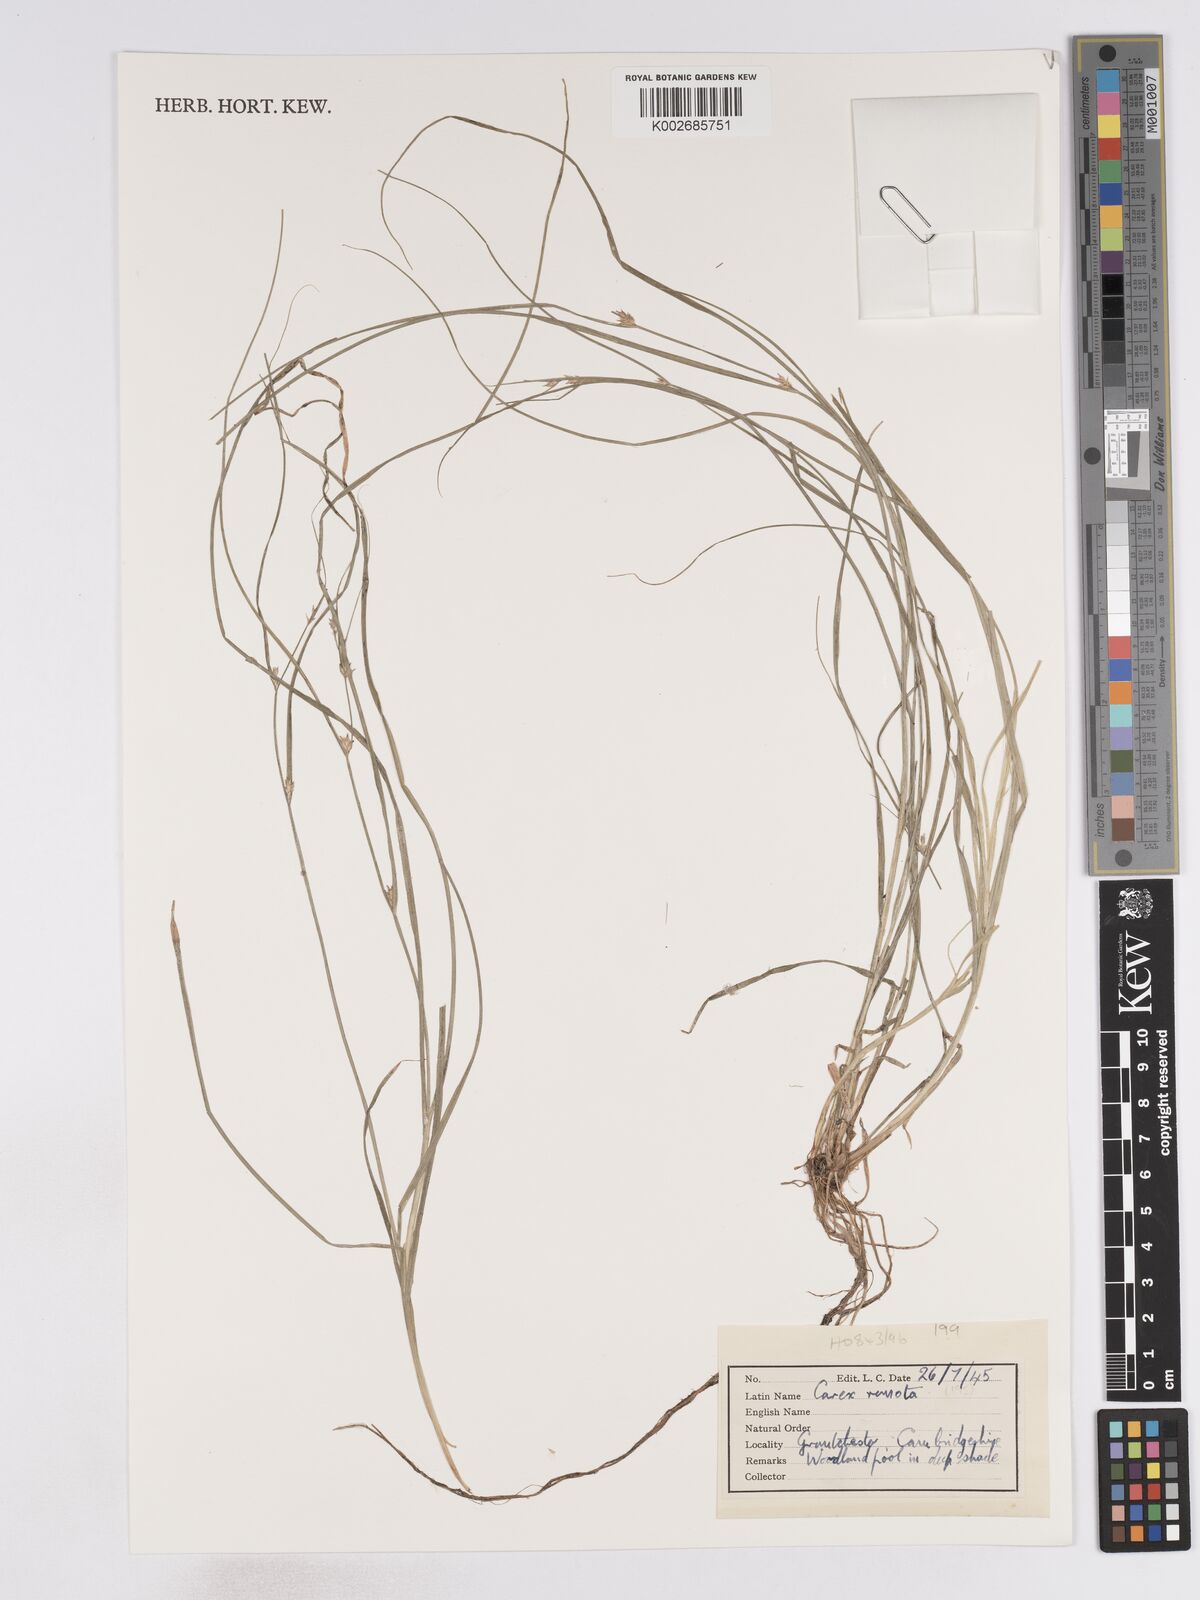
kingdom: Plantae
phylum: Tracheophyta
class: Liliopsida
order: Poales
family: Cyperaceae
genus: Carex
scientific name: Carex remota
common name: Remote sedge
